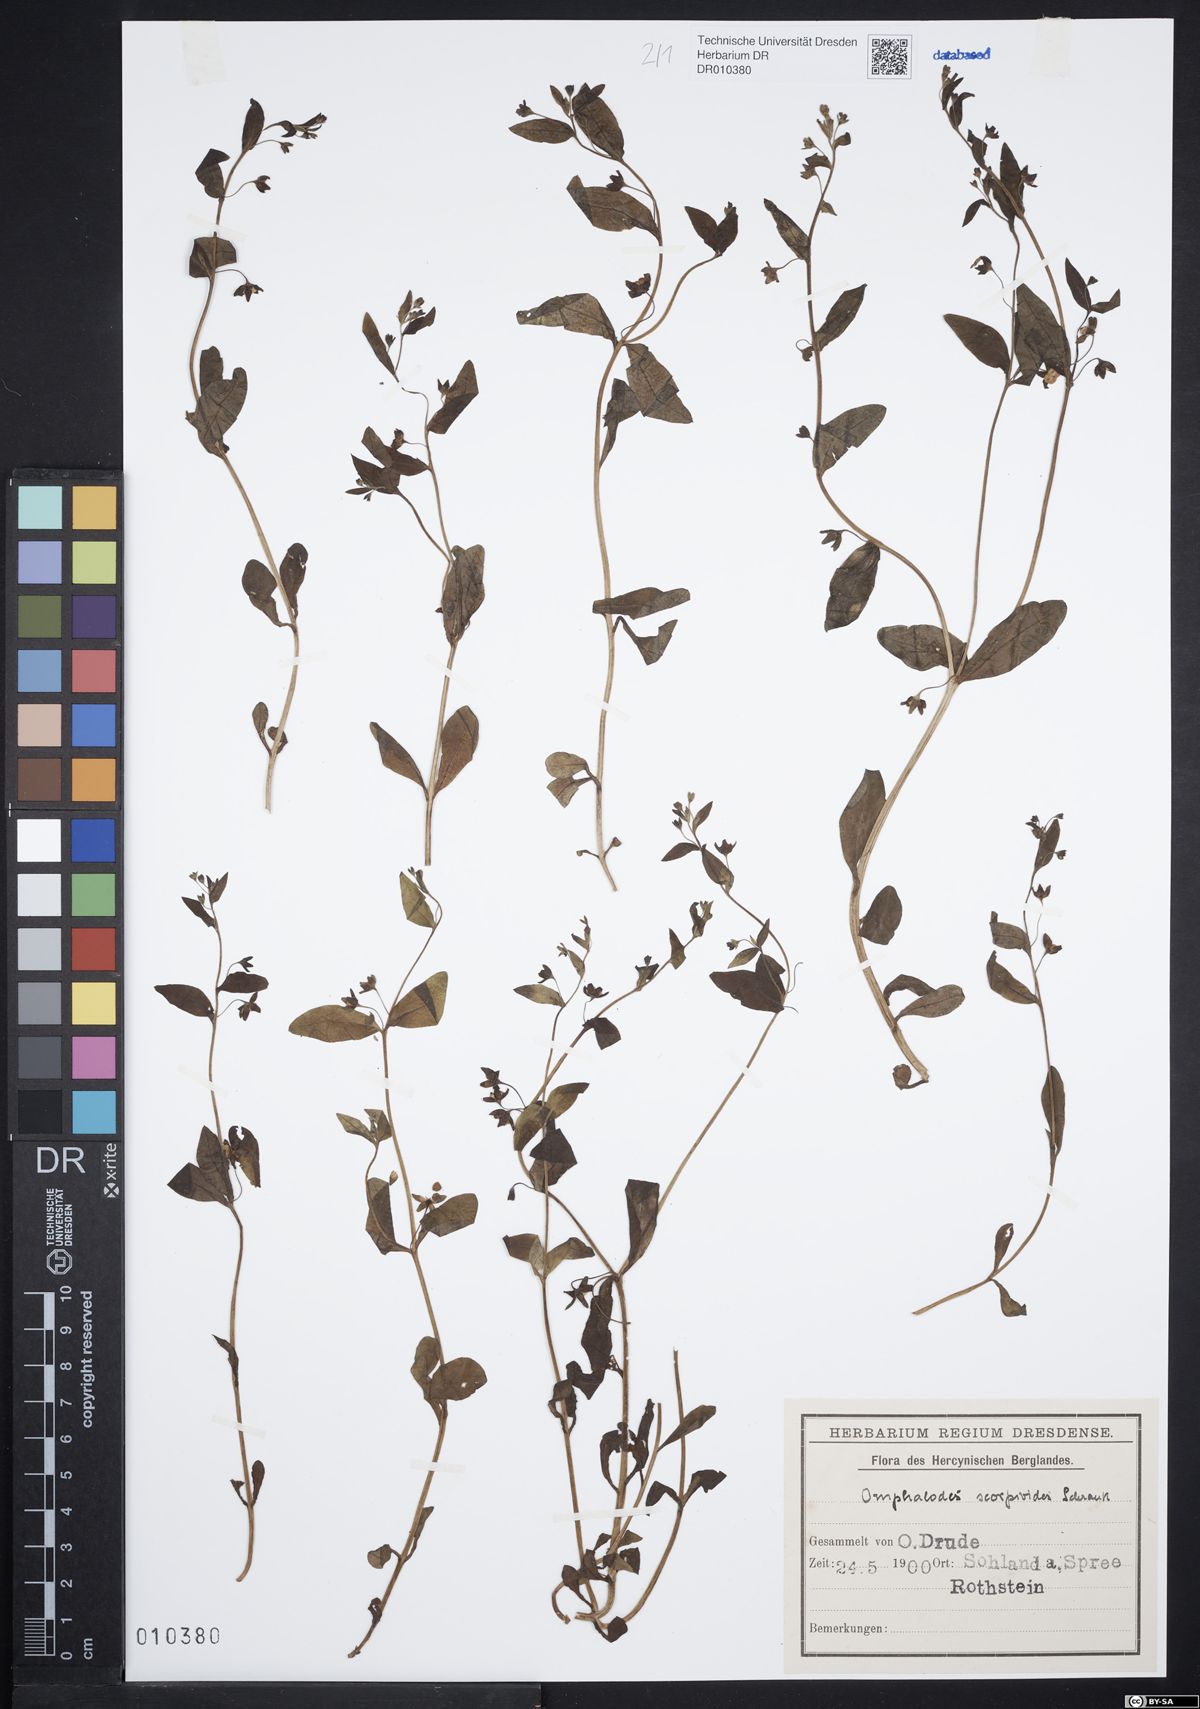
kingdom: Plantae
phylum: Tracheophyta
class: Magnoliopsida
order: Boraginales
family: Boraginaceae
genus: Memoremea
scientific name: Memoremea scorpioides
